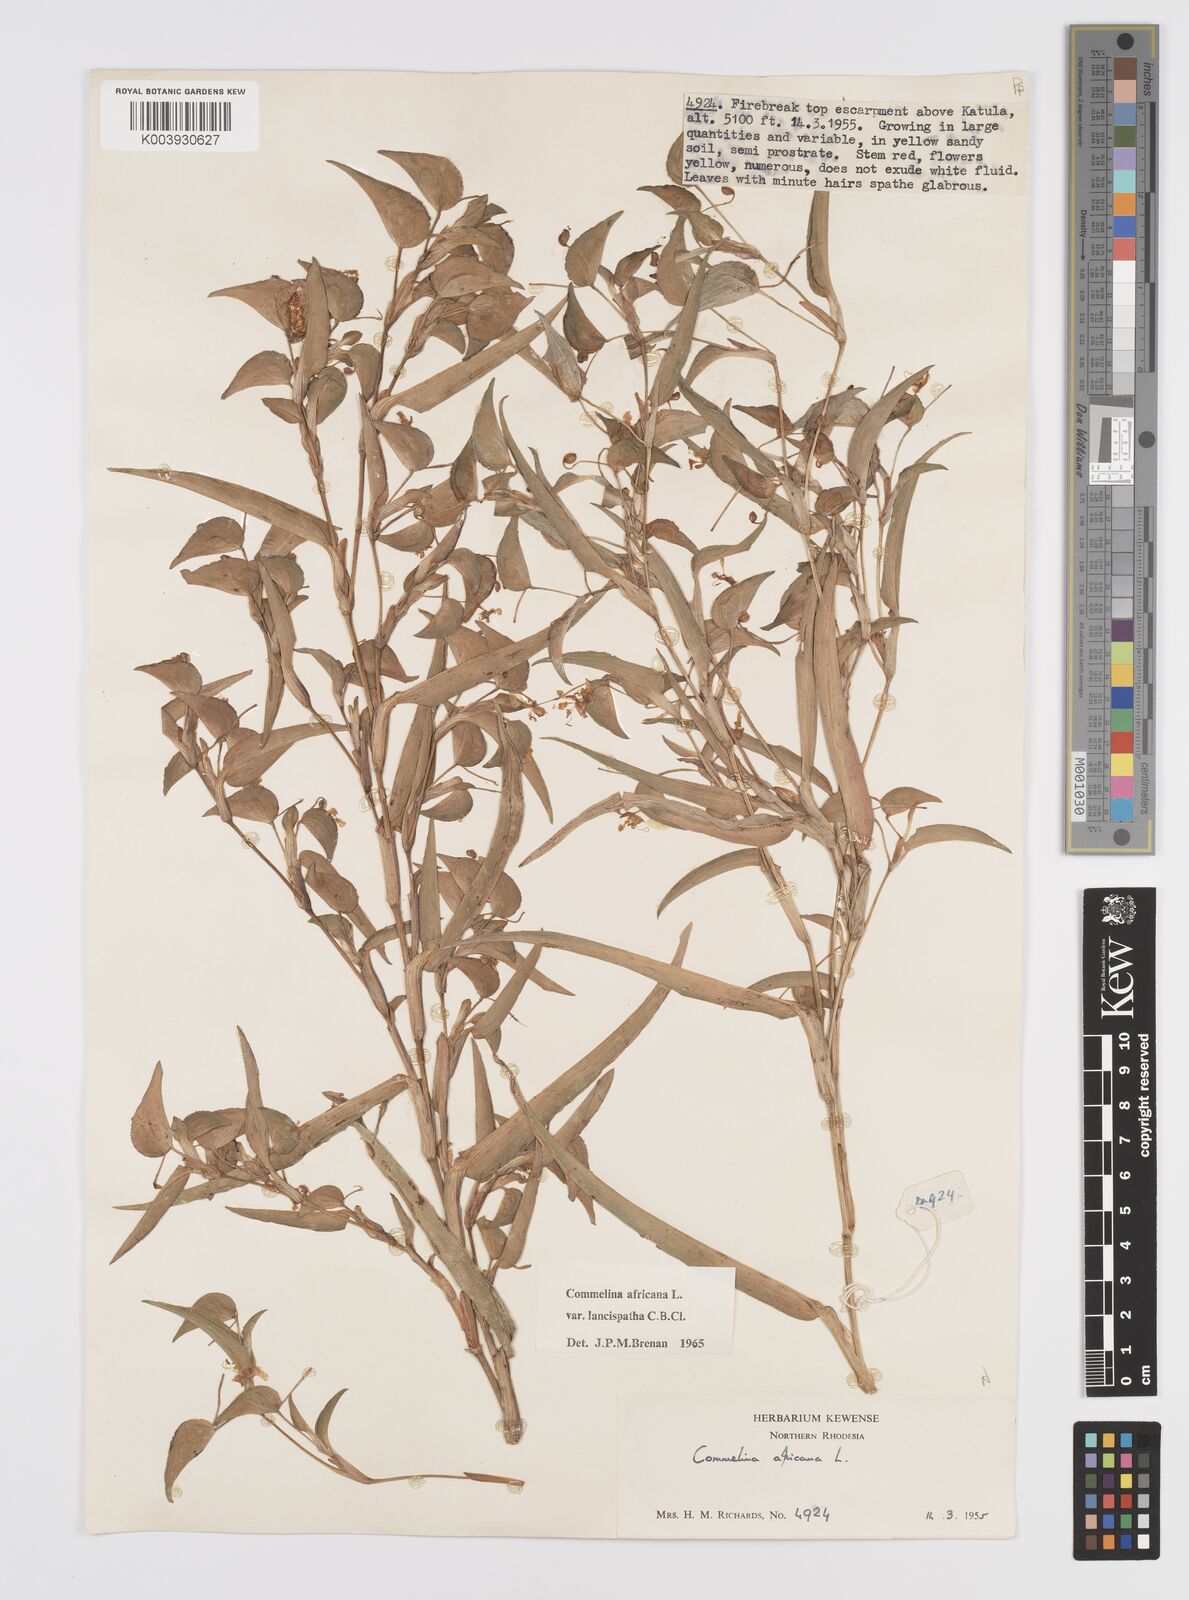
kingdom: Plantae
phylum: Tracheophyta
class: Liliopsida
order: Commelinales
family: Commelinaceae
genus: Commelina
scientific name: Commelina africana
